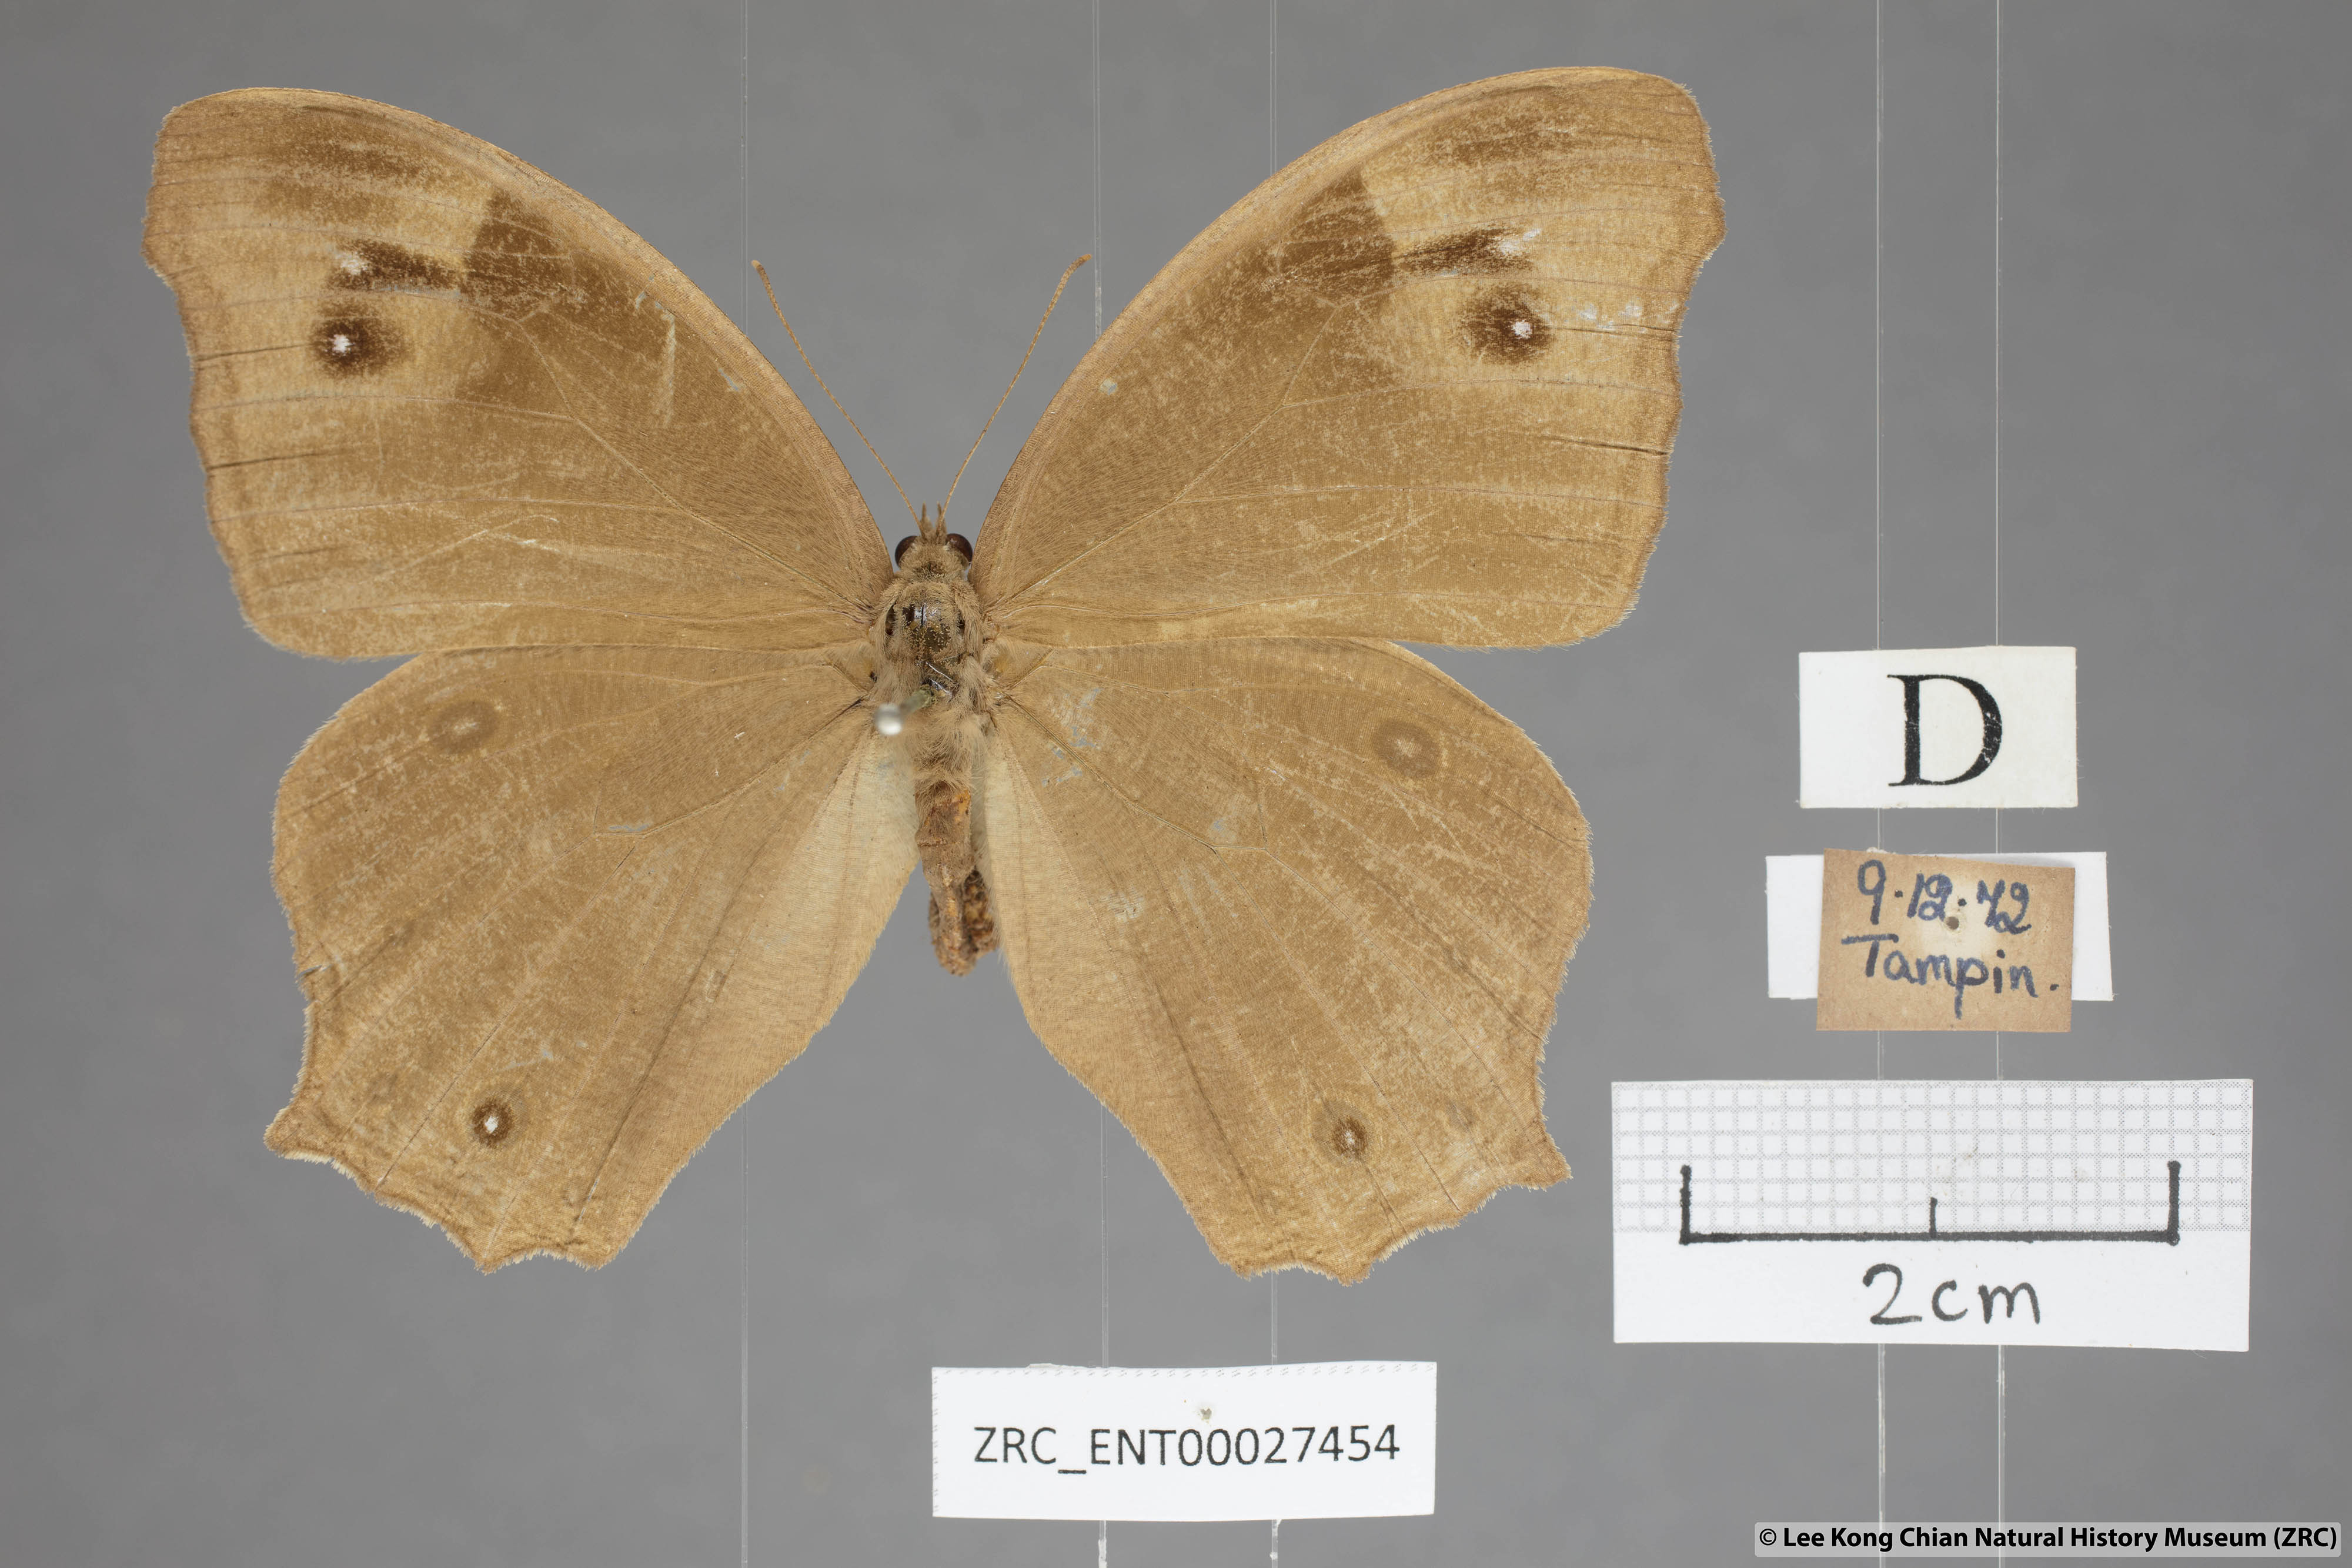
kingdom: Animalia
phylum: Arthropoda
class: Insecta
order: Lepidoptera
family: Nymphalidae
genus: Melanitis
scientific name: Melanitis leda
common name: Twilight brown
